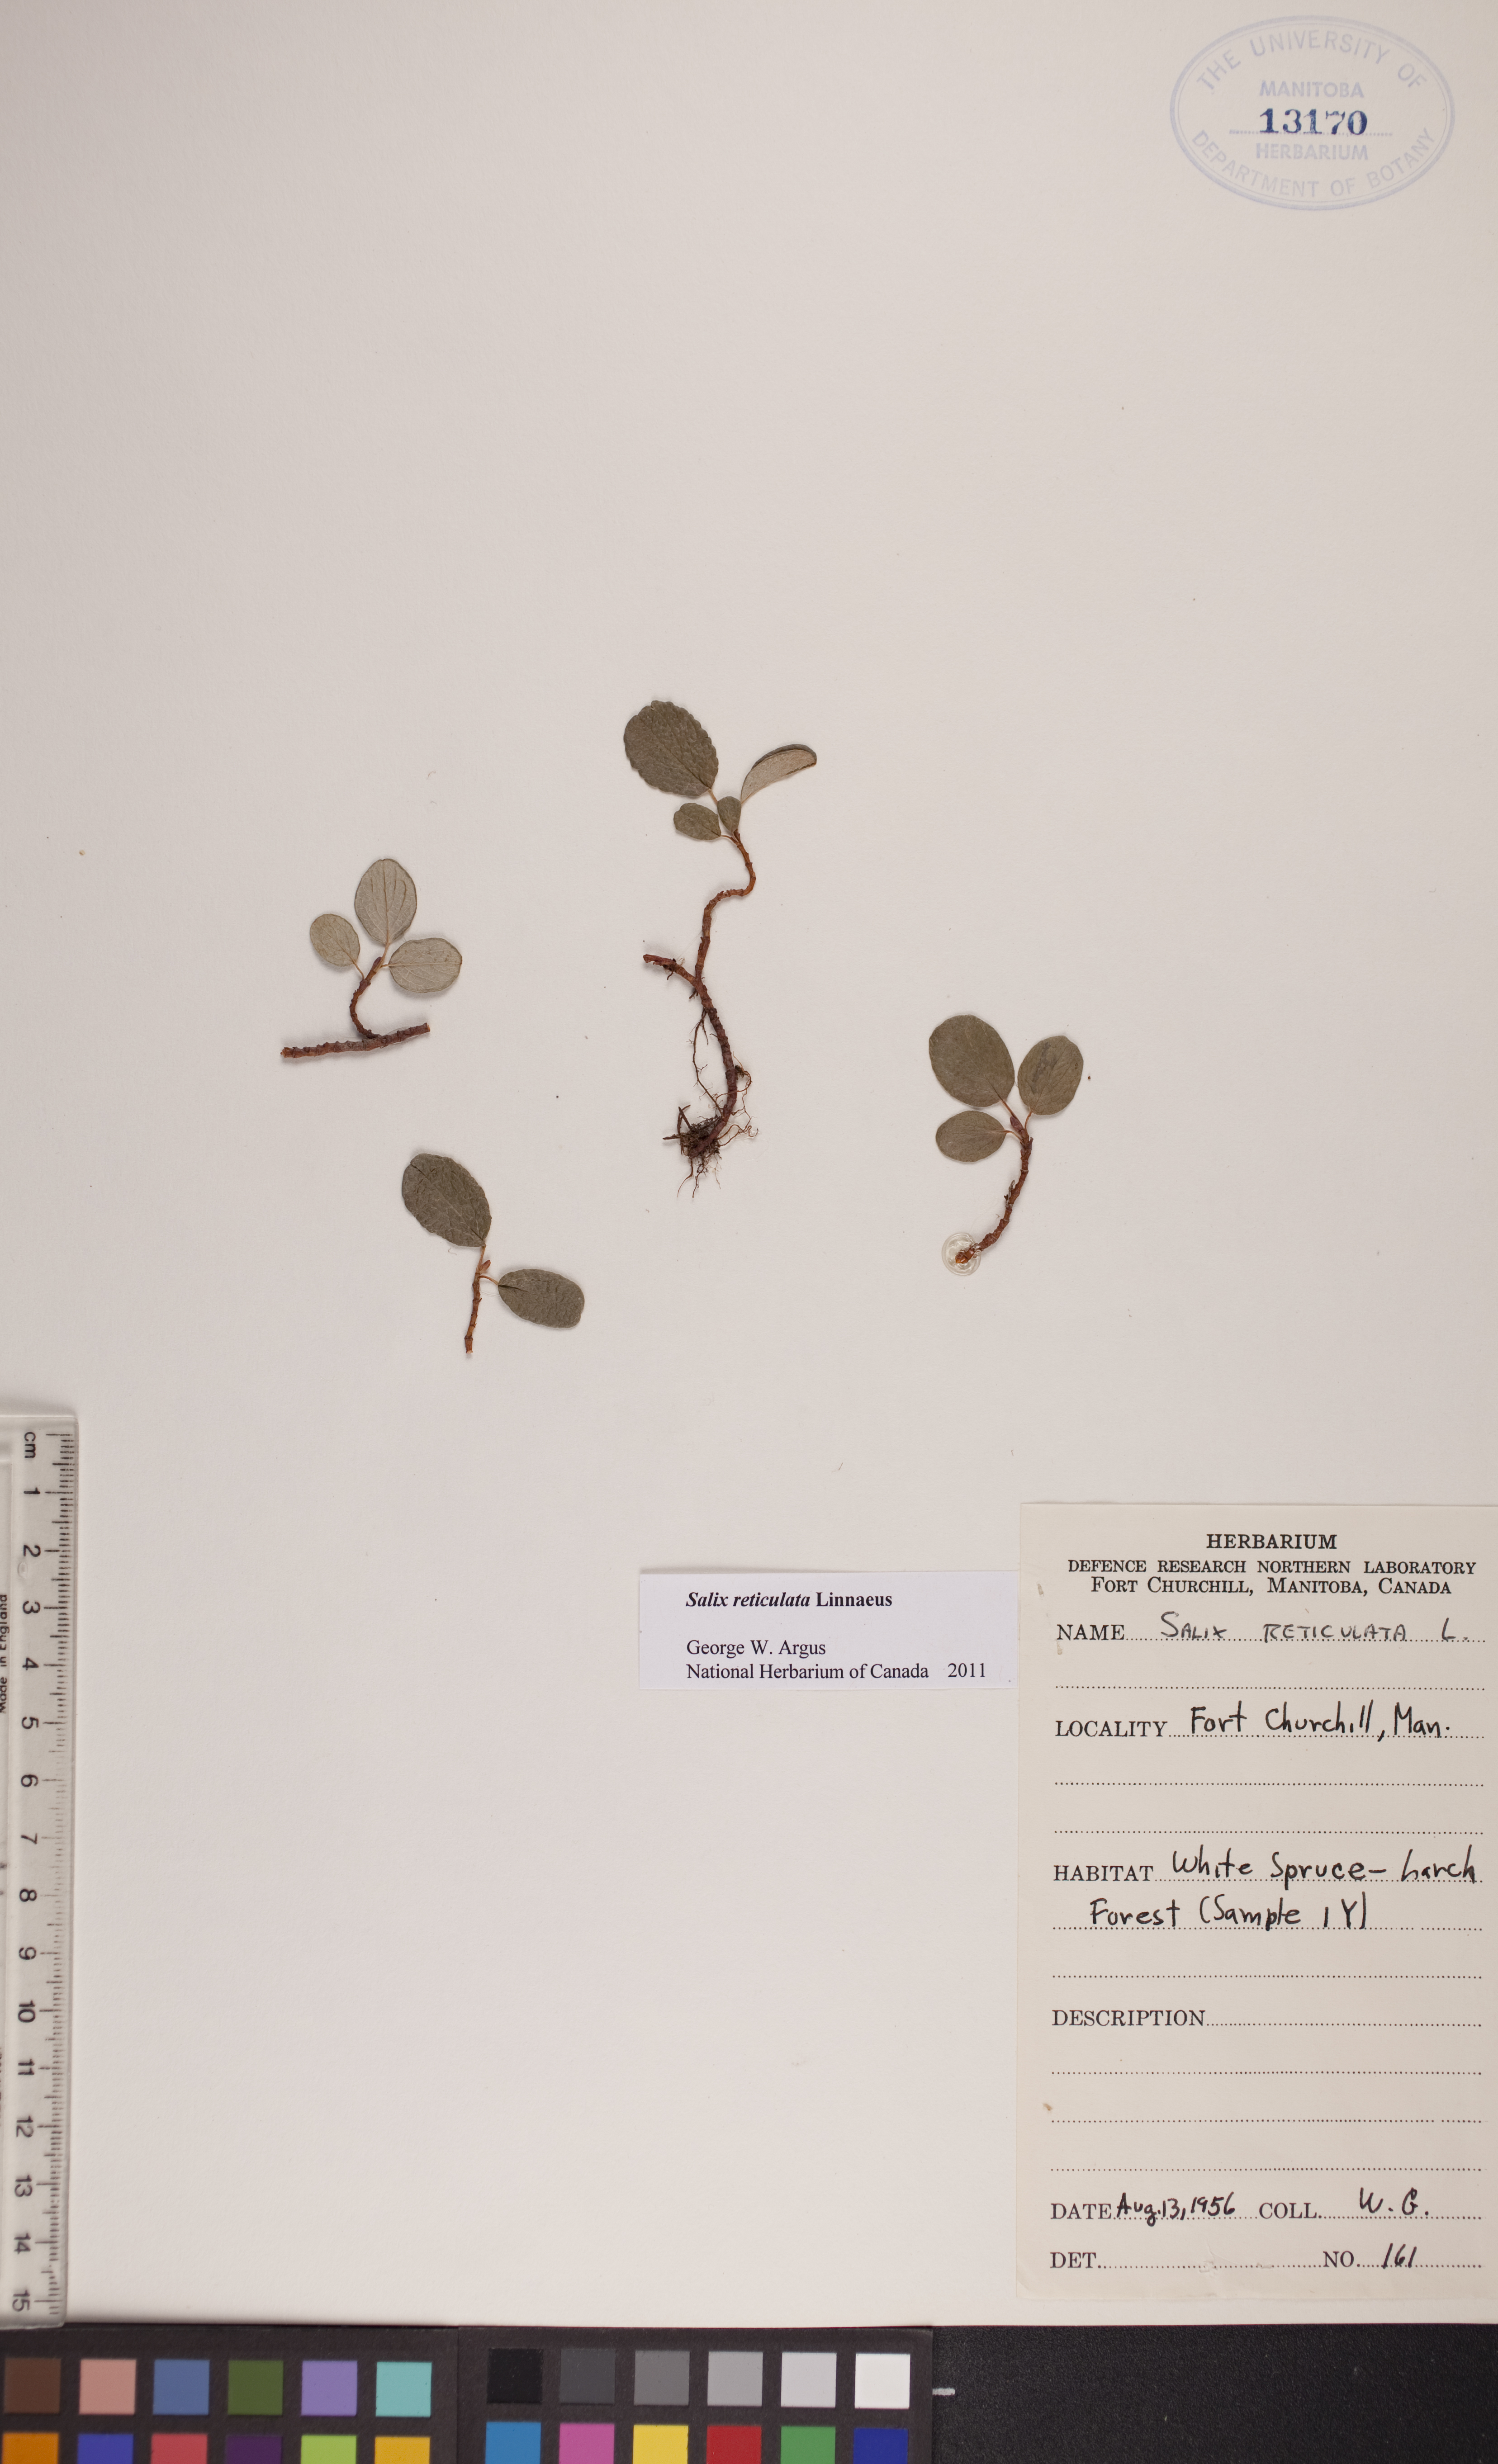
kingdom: Plantae
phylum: Tracheophyta
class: Magnoliopsida
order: Malpighiales
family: Salicaceae
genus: Salix
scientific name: Salix reticulata
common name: Net-leaved willow
